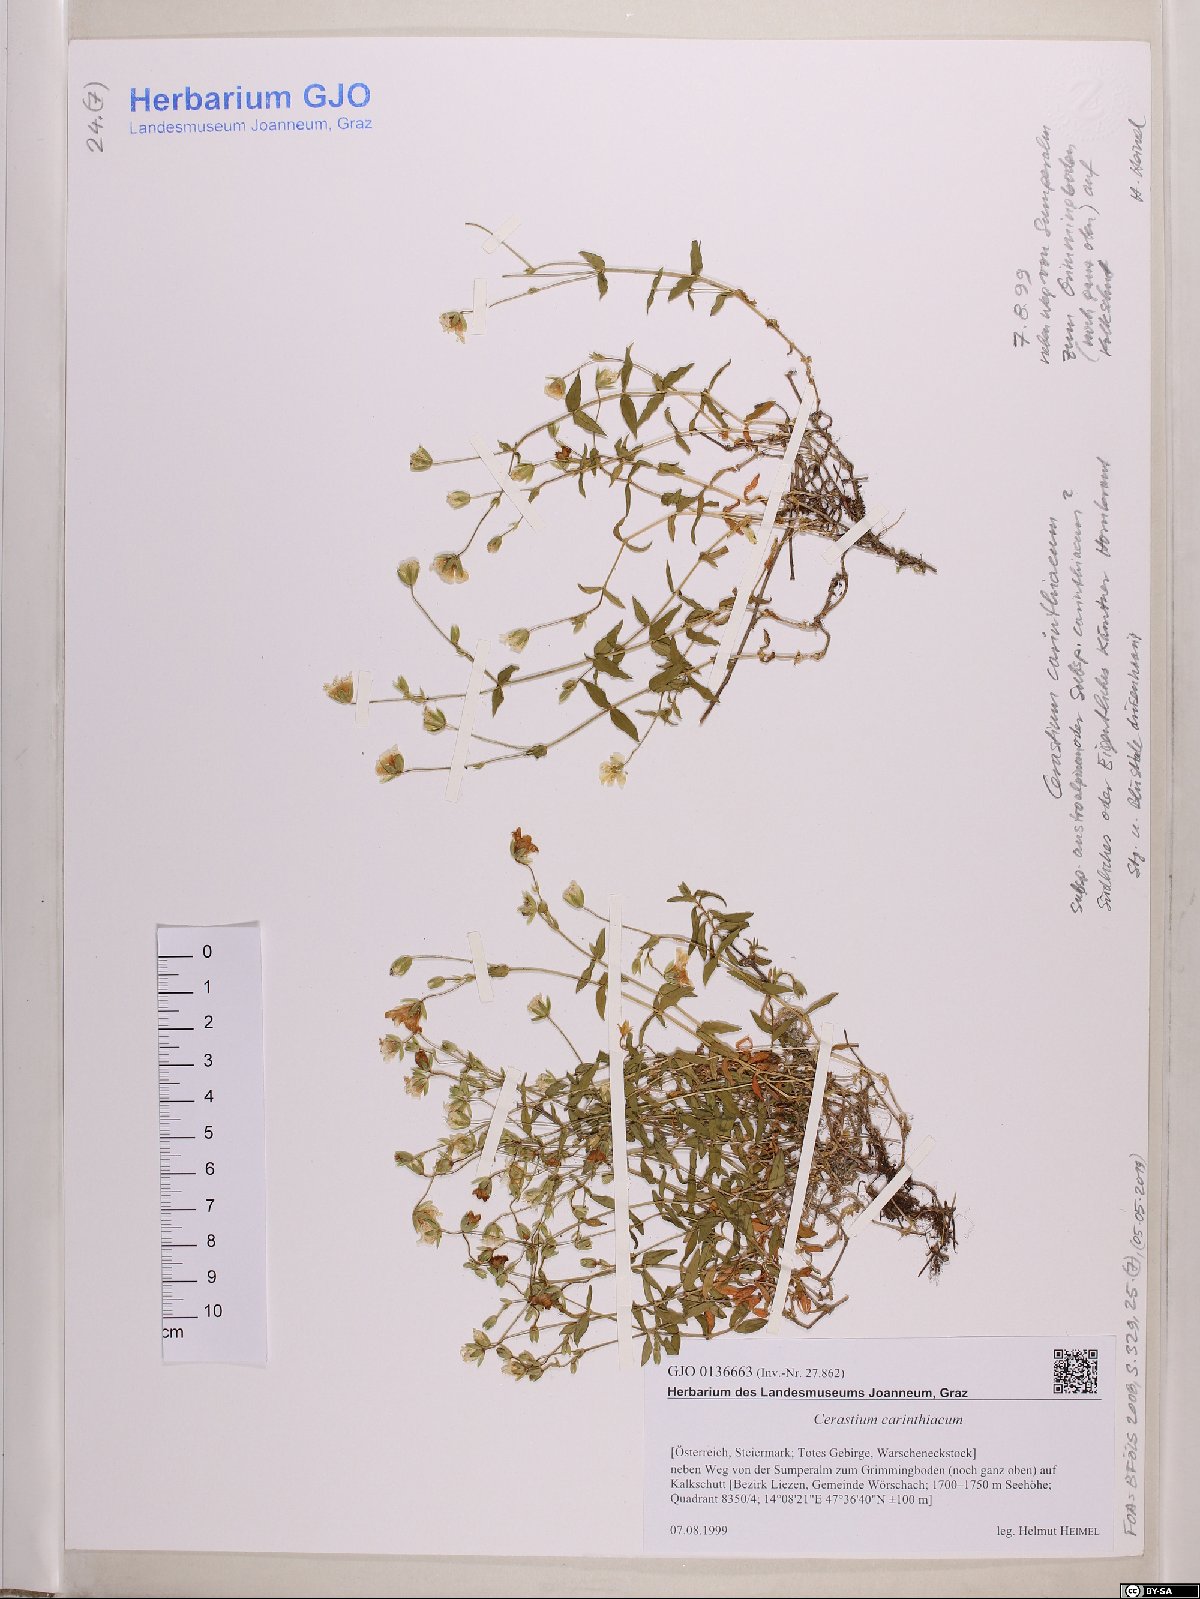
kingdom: Plantae
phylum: Tracheophyta
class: Magnoliopsida
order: Caryophyllales
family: Caryophyllaceae
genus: Cerastium
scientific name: Cerastium carinthiacum
